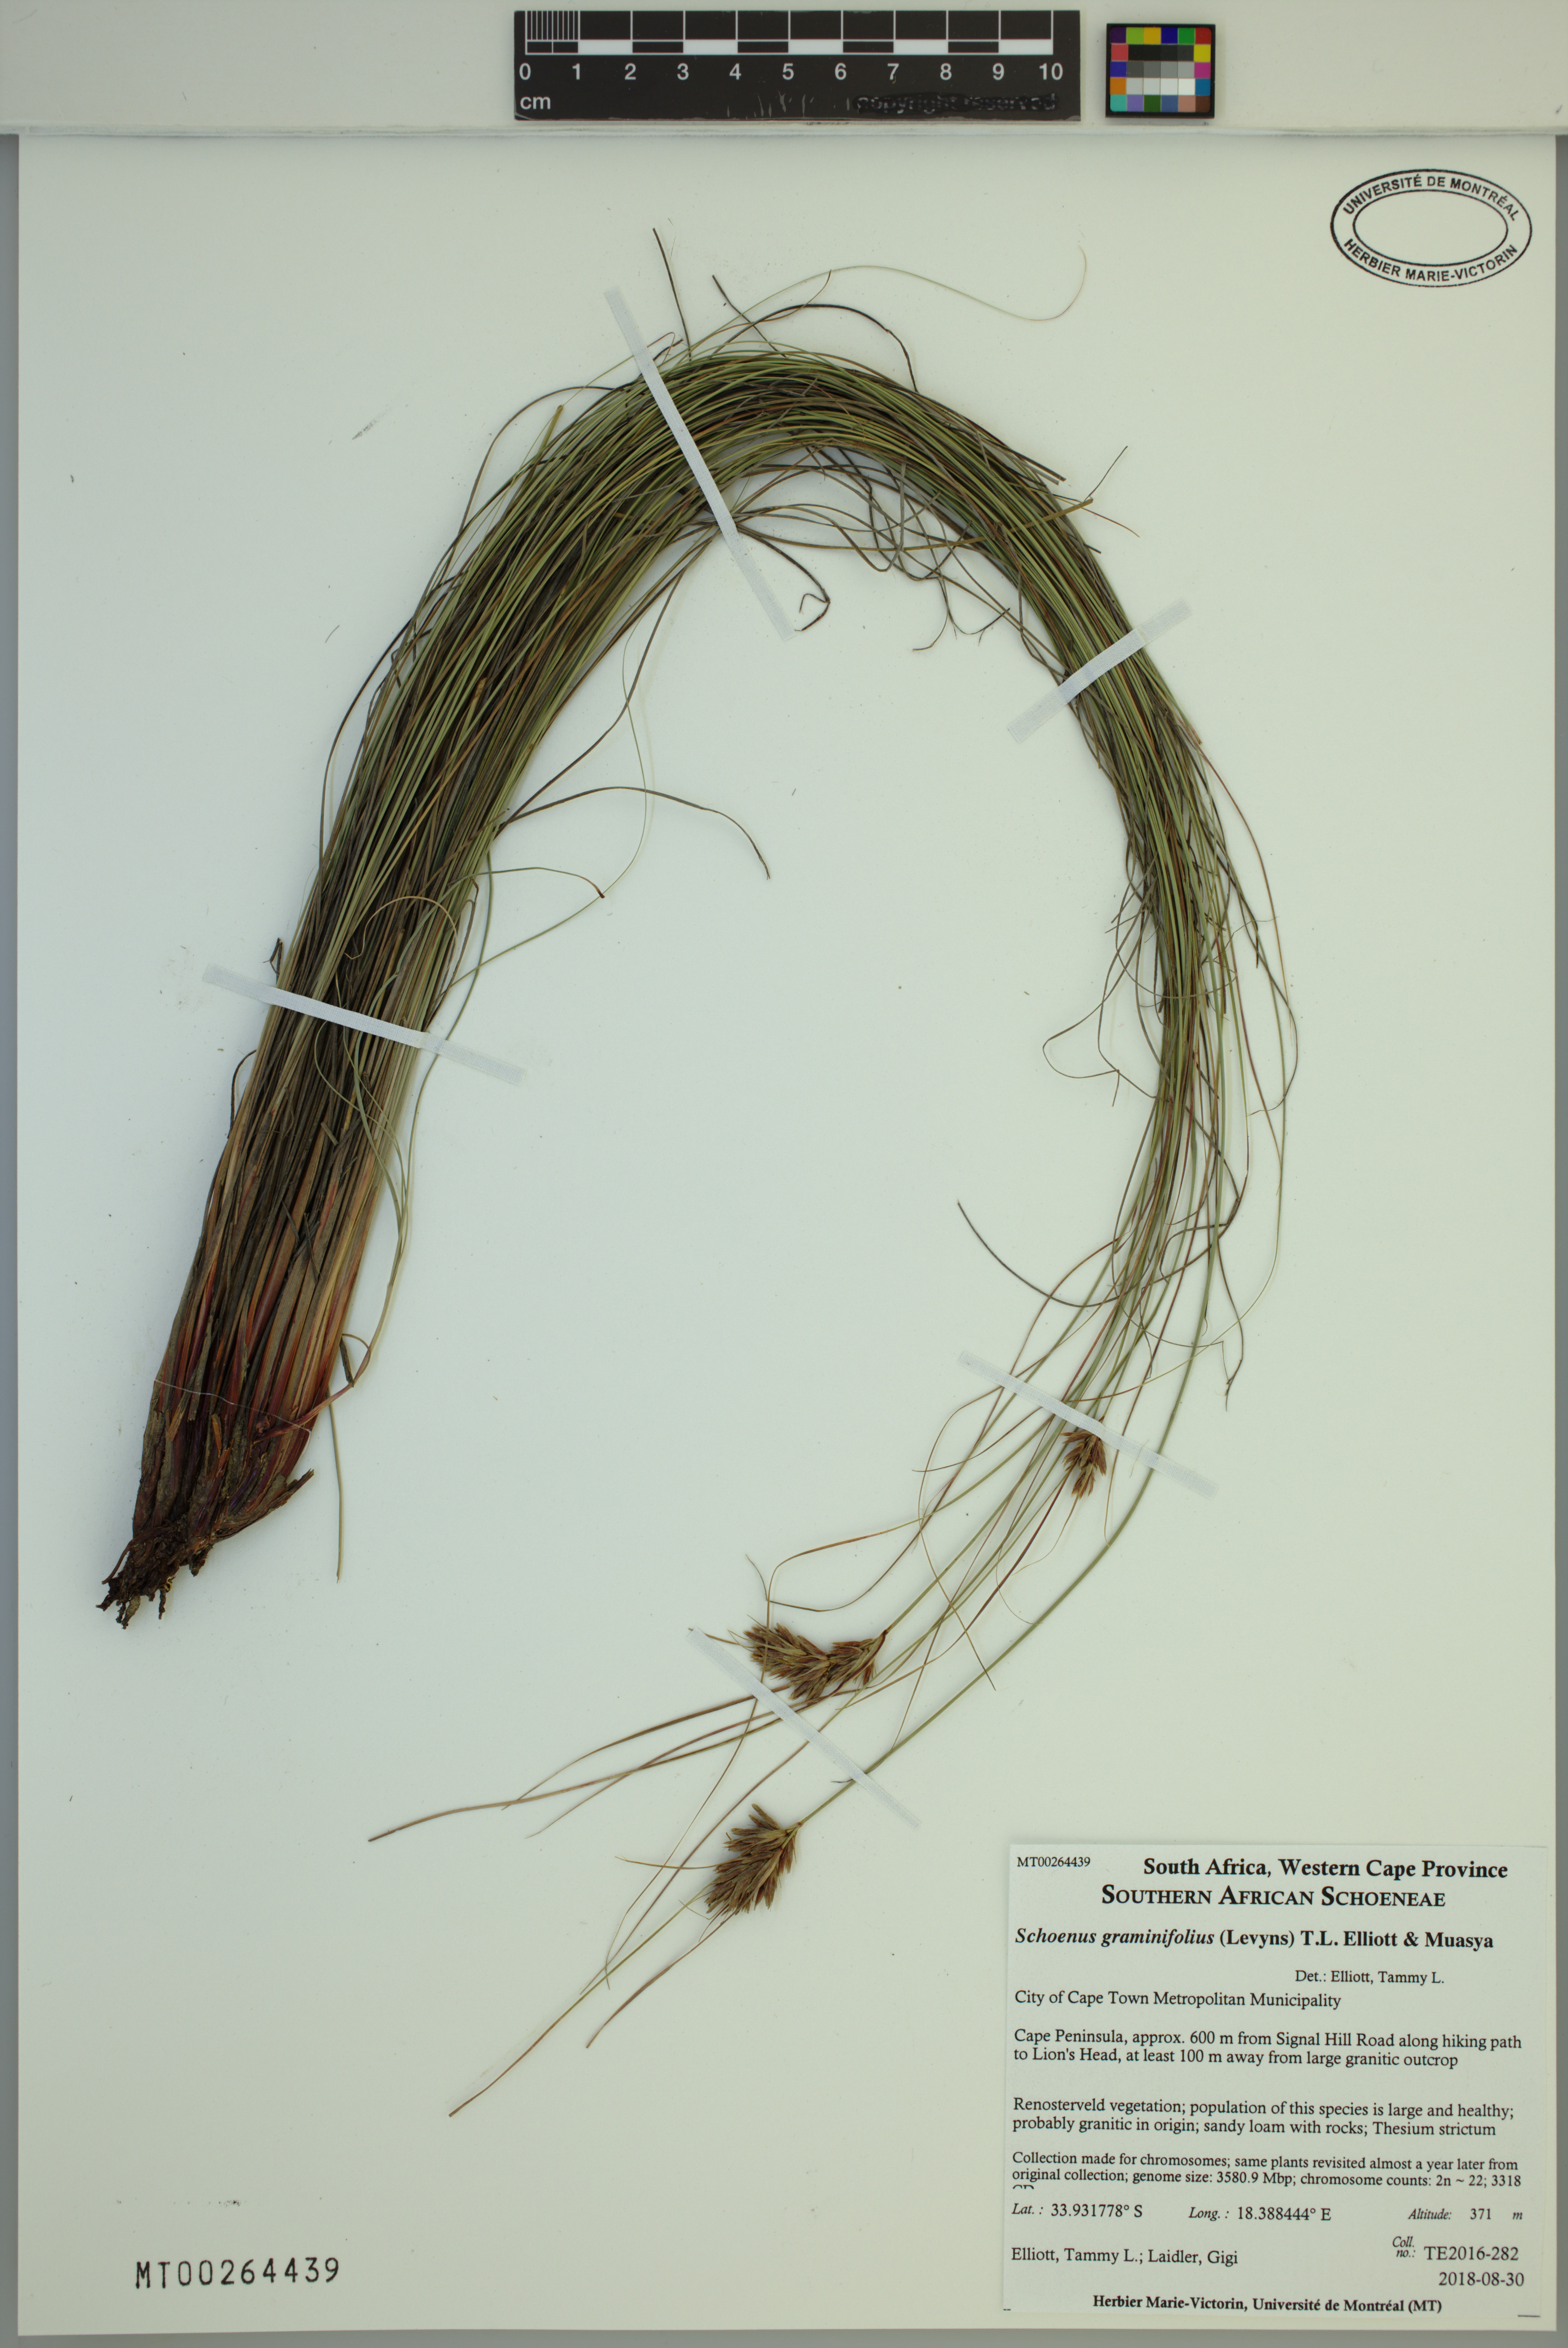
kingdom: Plantae
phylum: Tracheophyta
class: Liliopsida
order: Poales
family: Cyperaceae
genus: Schoenus
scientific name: Schoenus graminifolius
